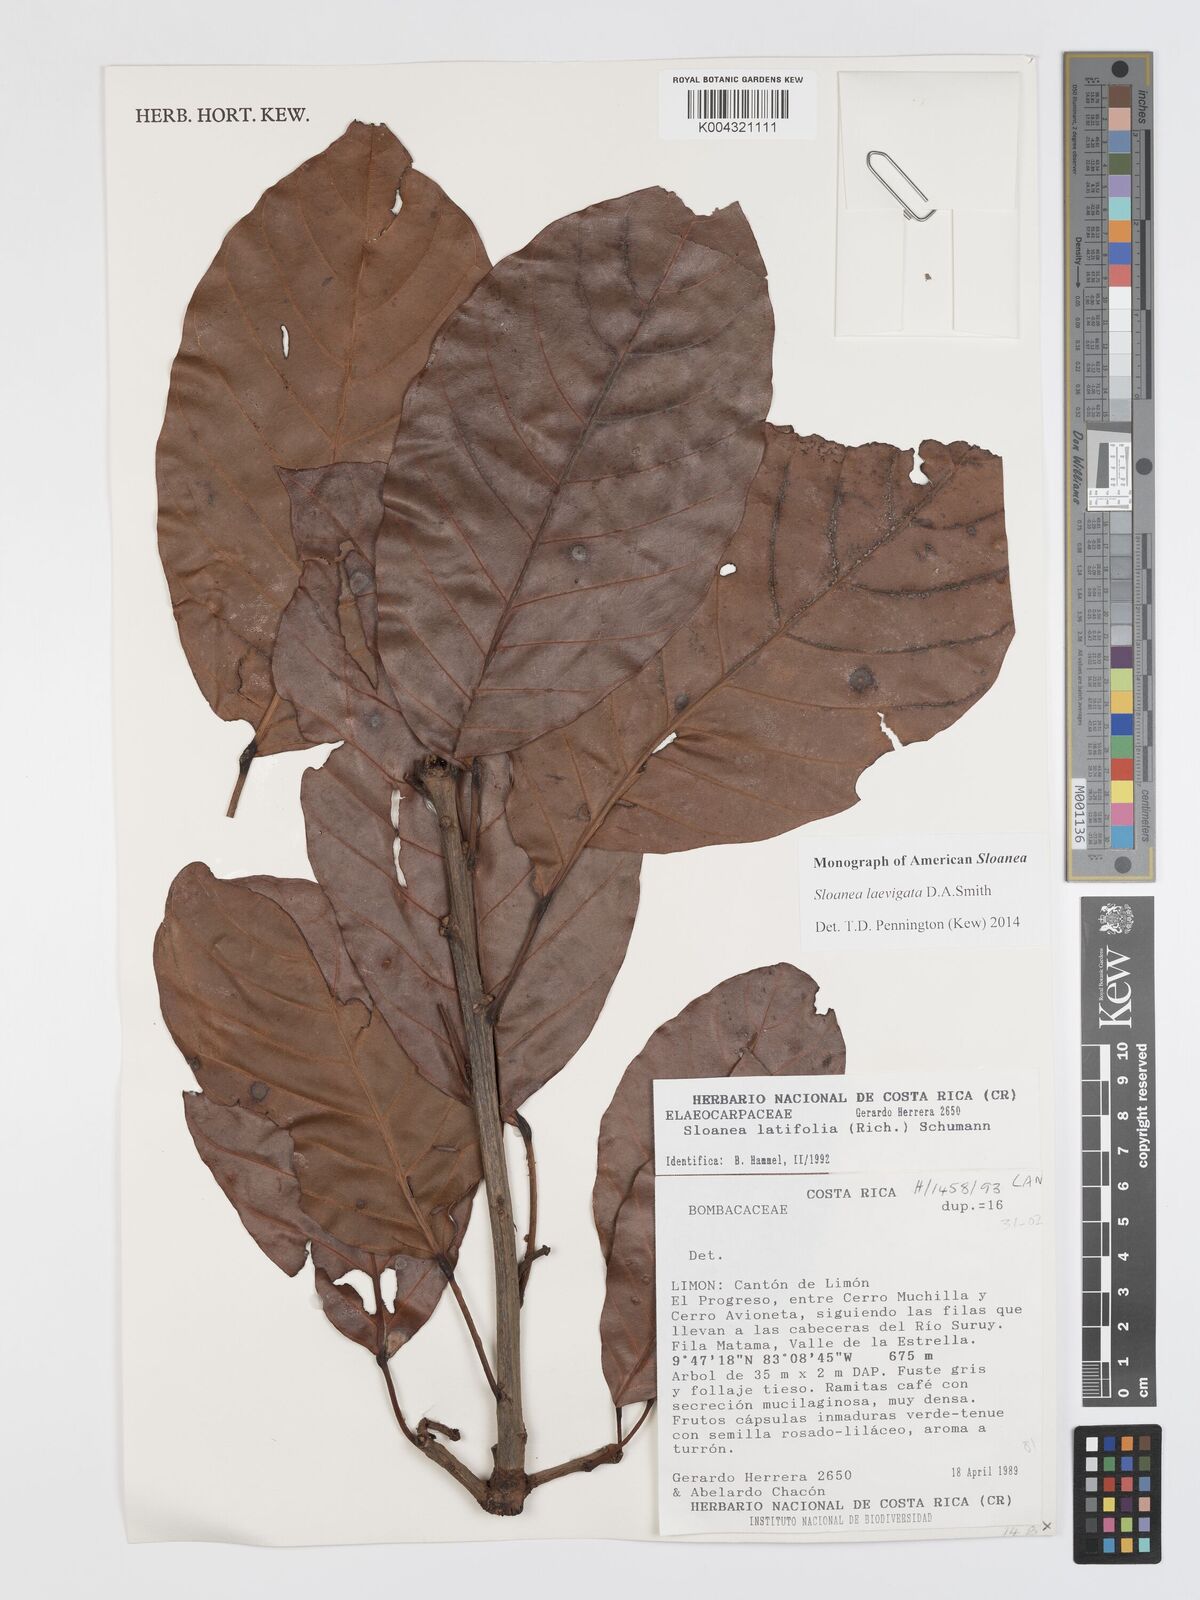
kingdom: Plantae
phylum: Tracheophyta
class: Magnoliopsida
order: Oxalidales
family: Elaeocarpaceae
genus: Sloanea
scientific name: Sloanea laevigata
